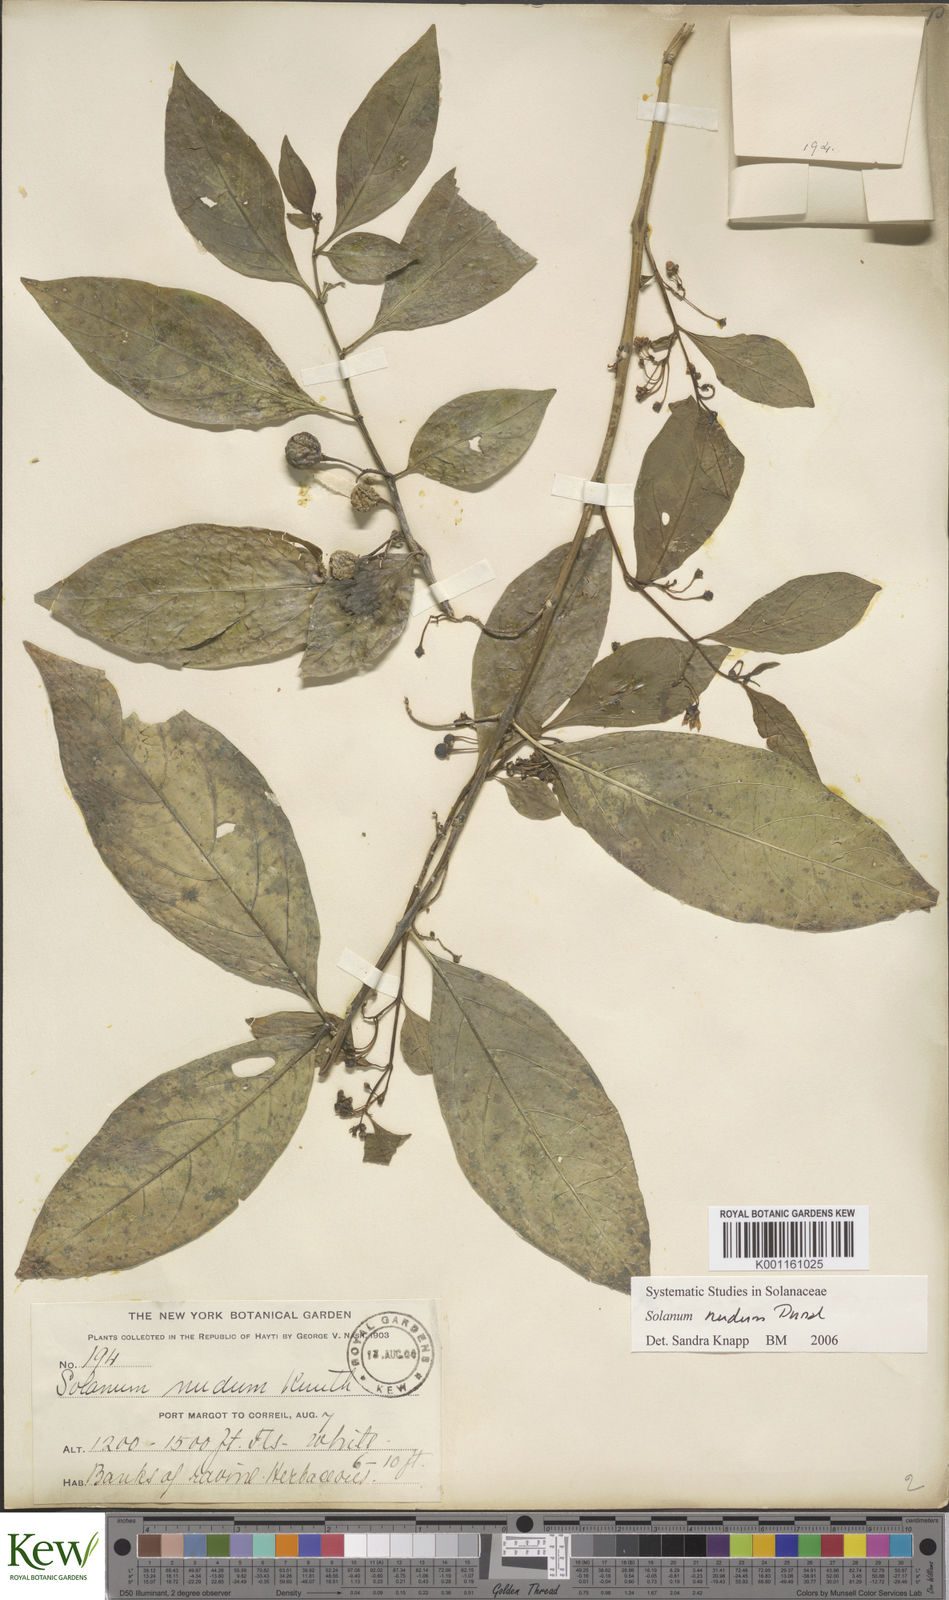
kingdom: Plantae
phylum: Tracheophyta
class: Magnoliopsida
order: Solanales
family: Solanaceae
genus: Solanum
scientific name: Solanum nudum
